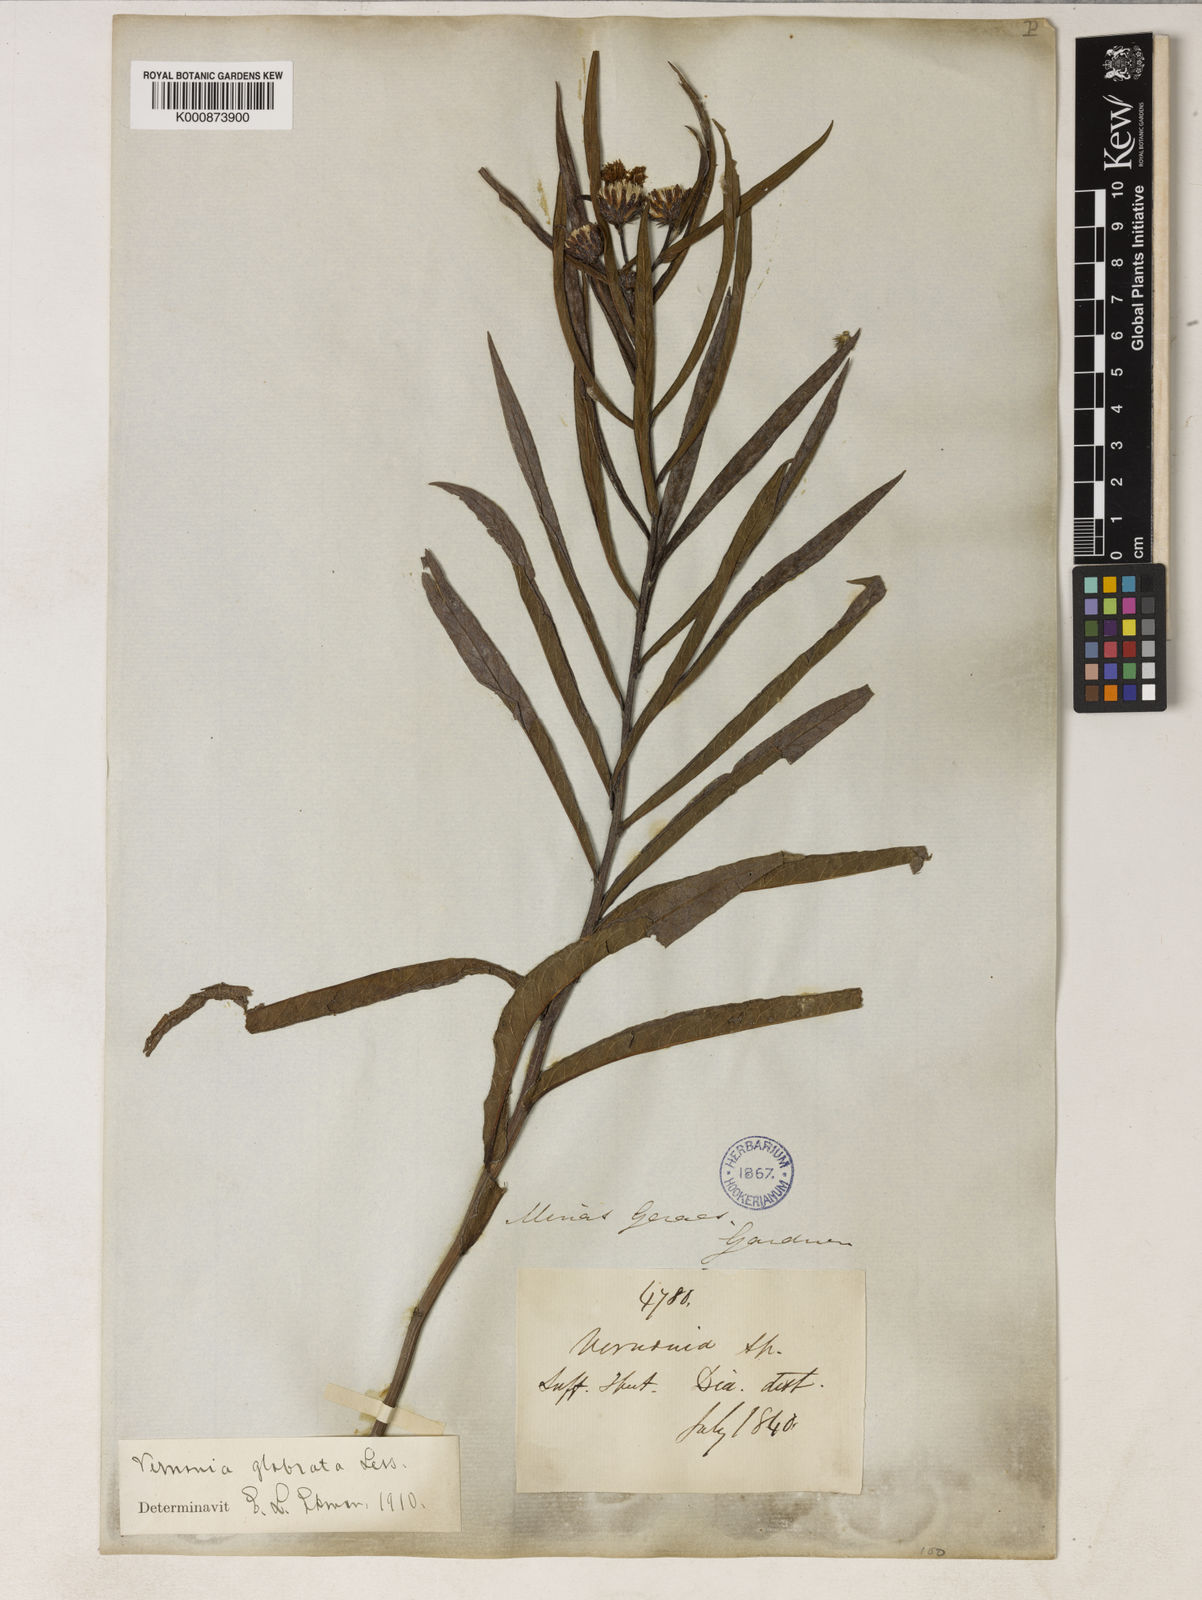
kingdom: Plantae
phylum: Tracheophyta
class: Magnoliopsida
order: Asterales
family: Asteraceae
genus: Lessingianthus
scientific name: Lessingianthus glabratus
